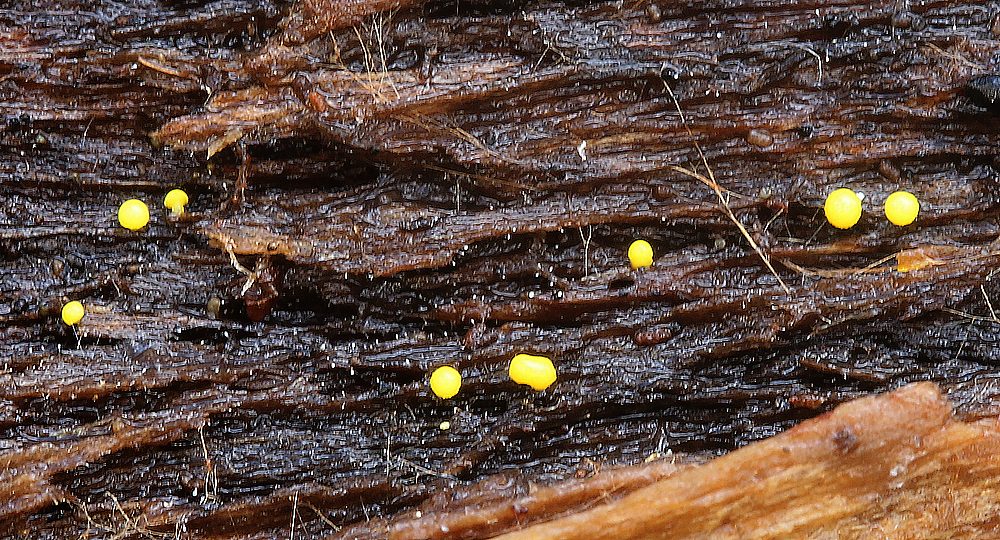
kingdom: Fungi
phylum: Ascomycota
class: Leotiomycetes
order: Helotiales
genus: Lemalis
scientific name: Lemalis aurea
